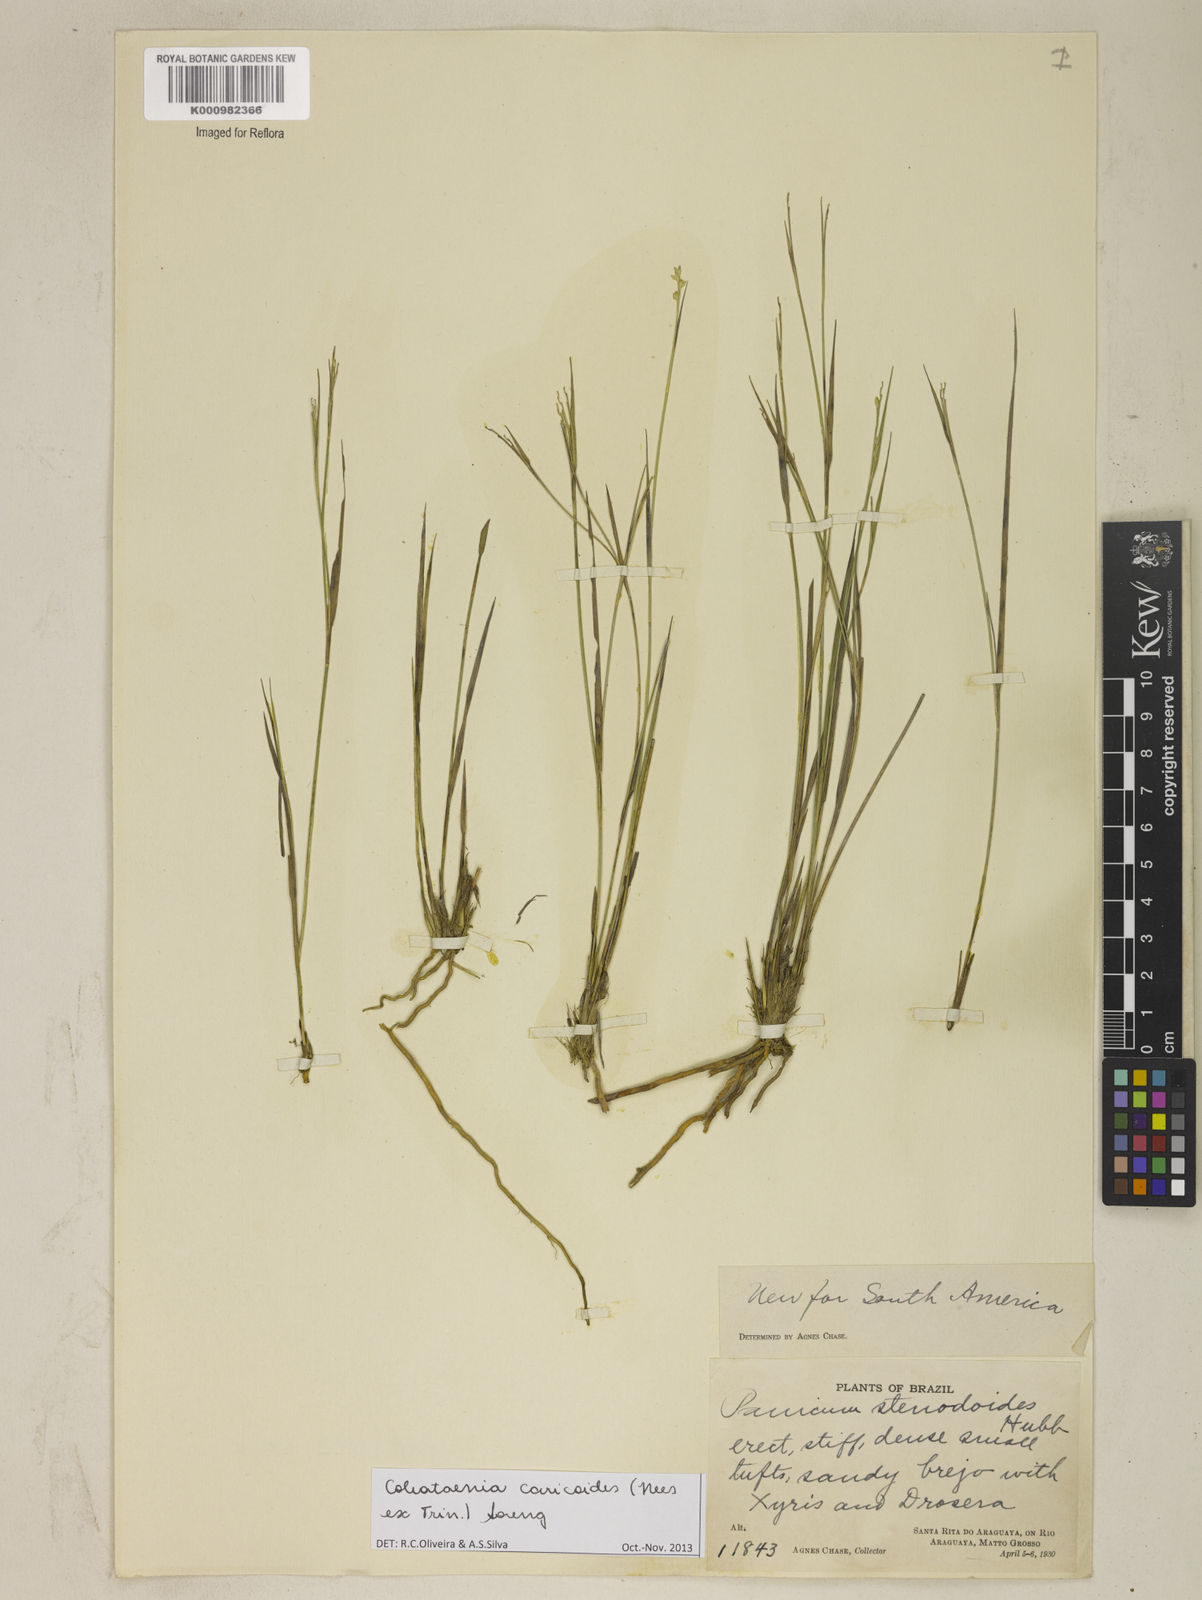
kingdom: Plantae
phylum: Tracheophyta
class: Liliopsida
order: Poales
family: Poaceae
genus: Coleataenia
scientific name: Coleataenia caricoides
